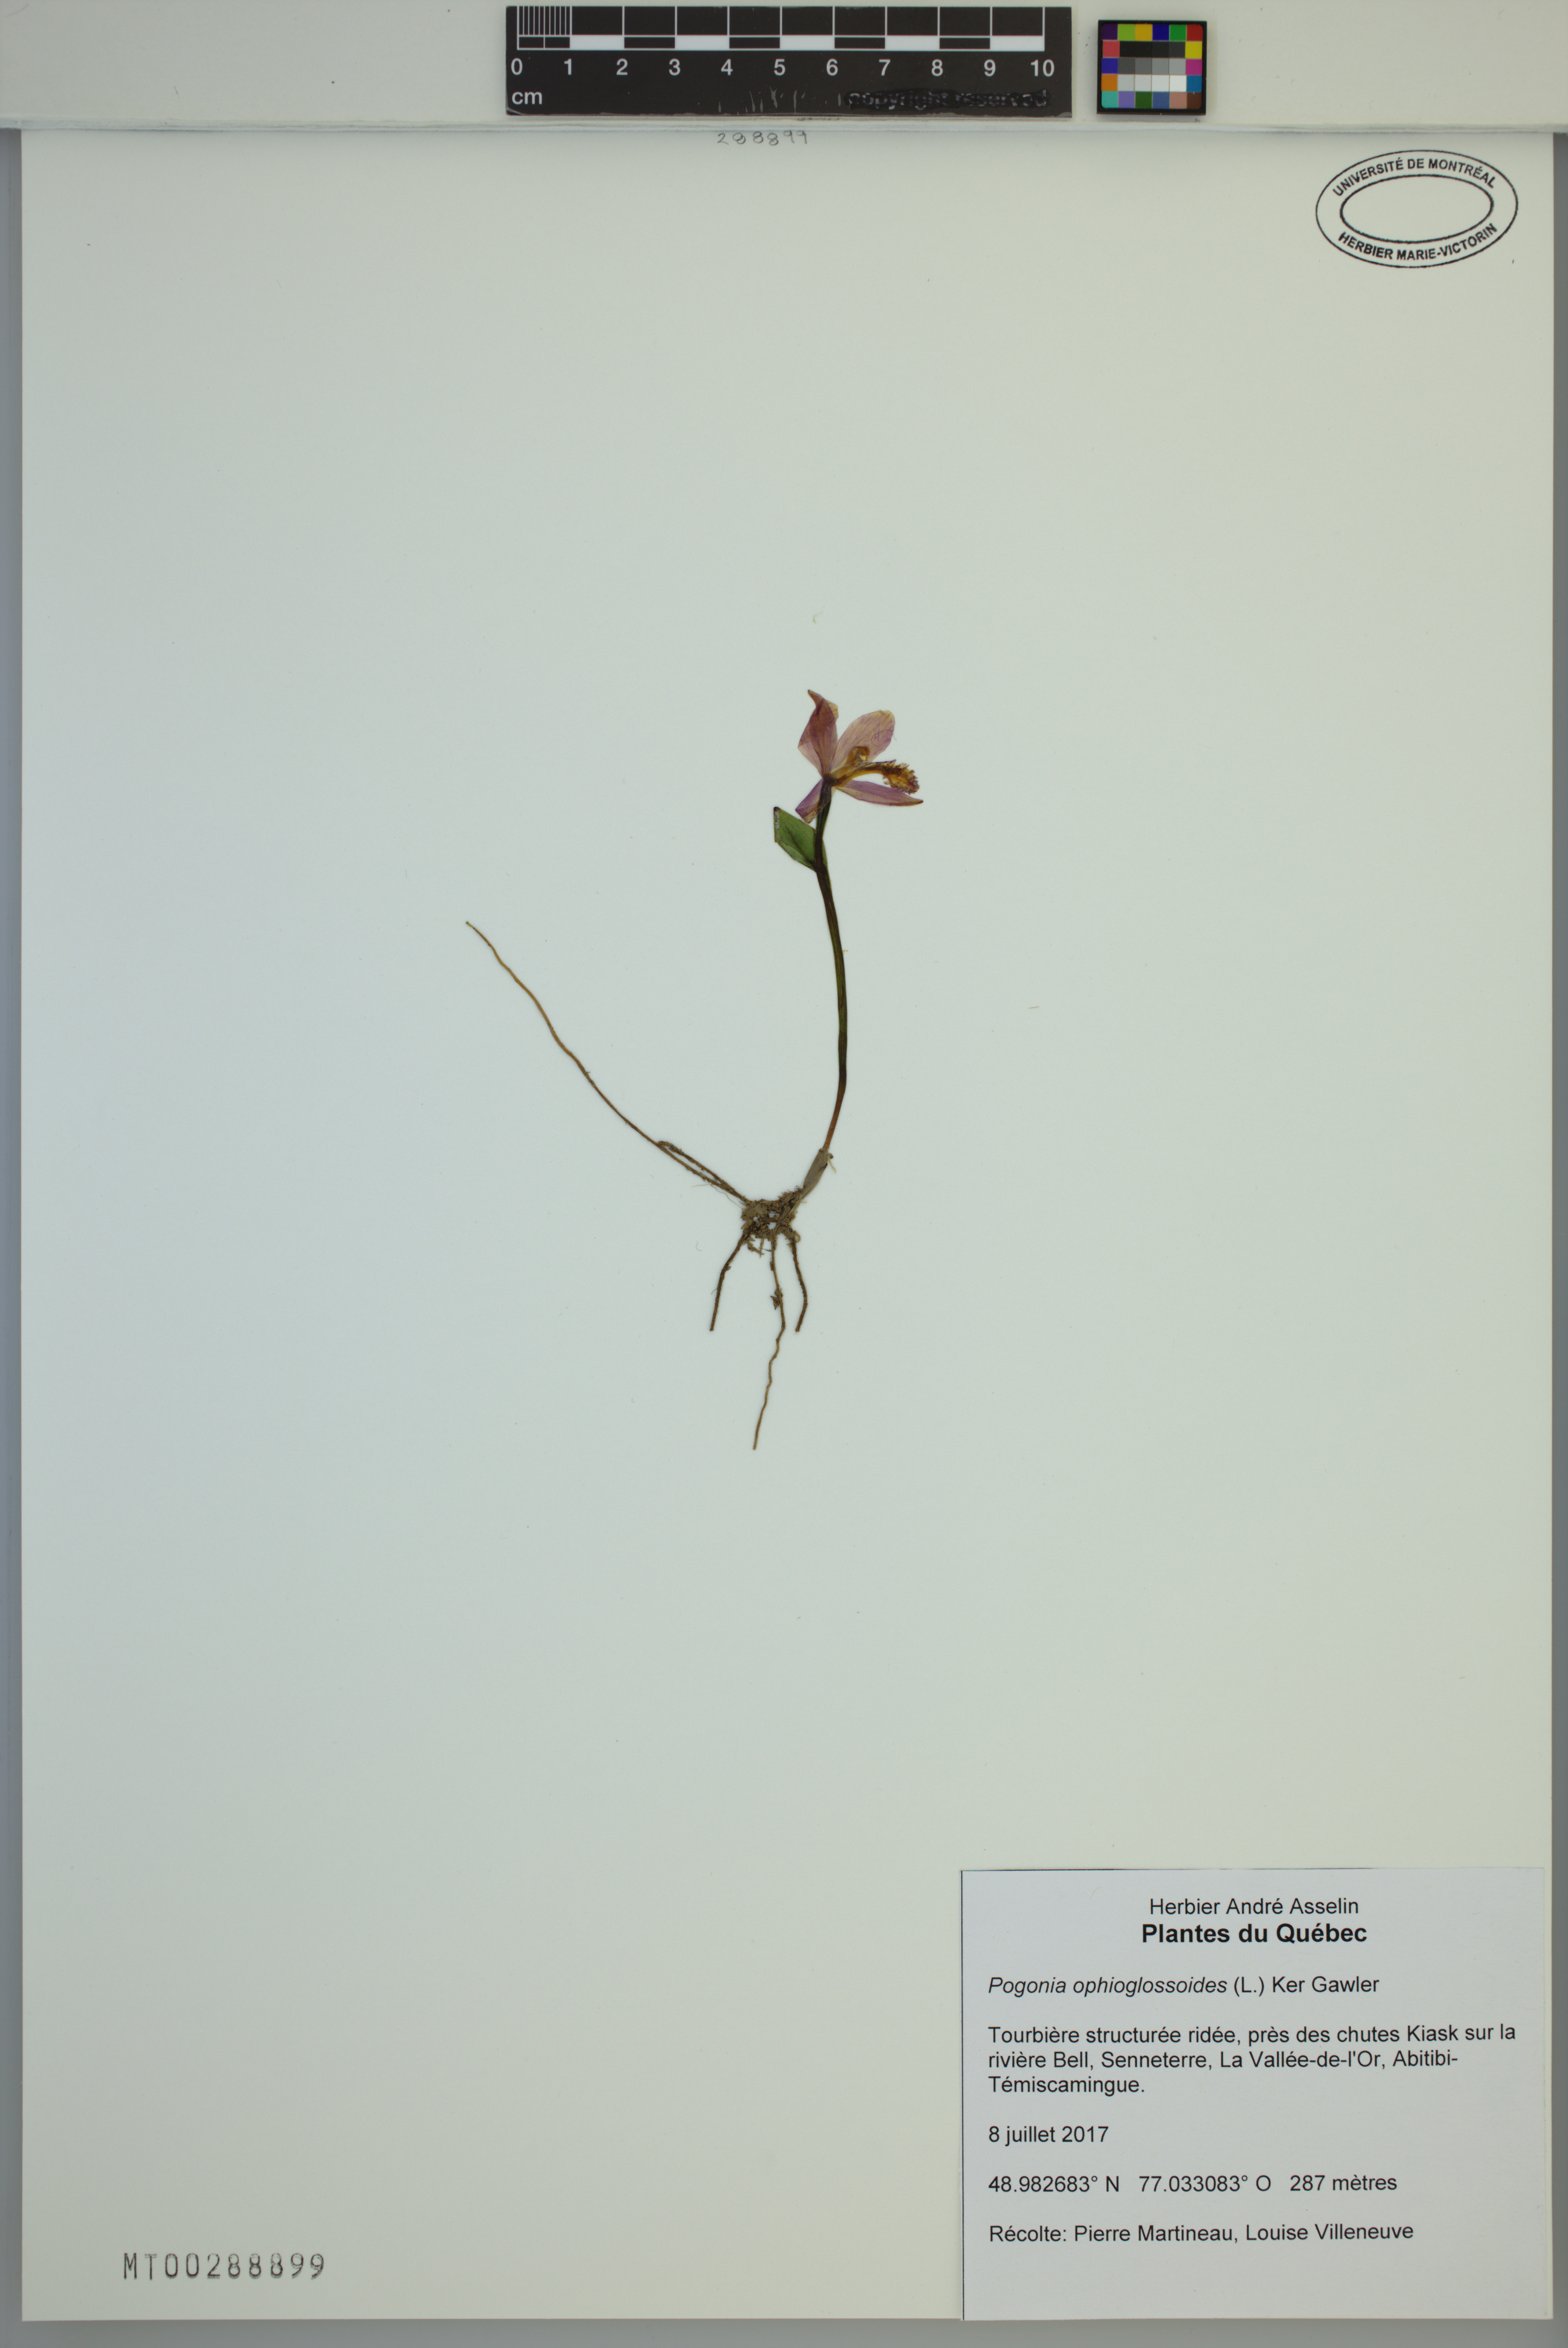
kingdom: Plantae
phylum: Tracheophyta
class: Liliopsida
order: Asparagales
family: Orchidaceae
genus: Pogonia
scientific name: Pogonia ophioglossoides
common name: Rose pogonia
